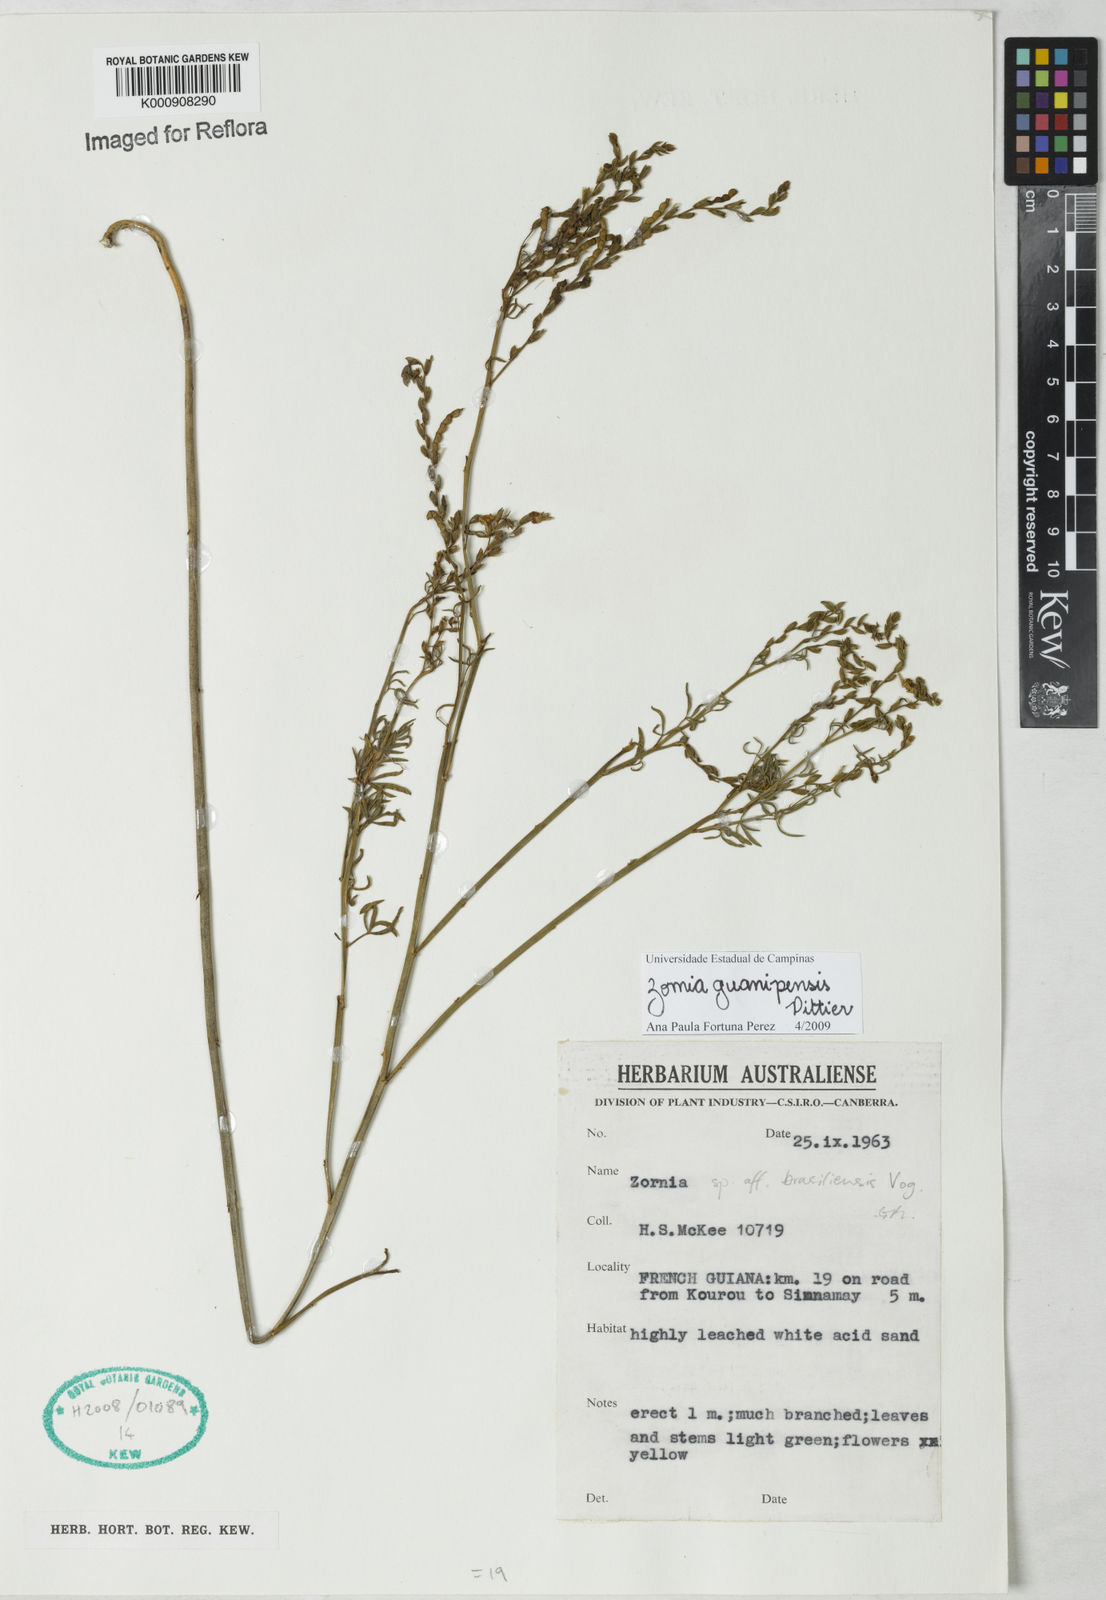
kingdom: Plantae
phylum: Tracheophyta
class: Magnoliopsida
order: Fabales
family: Fabaceae
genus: Zornia
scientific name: Zornia guanipensis
